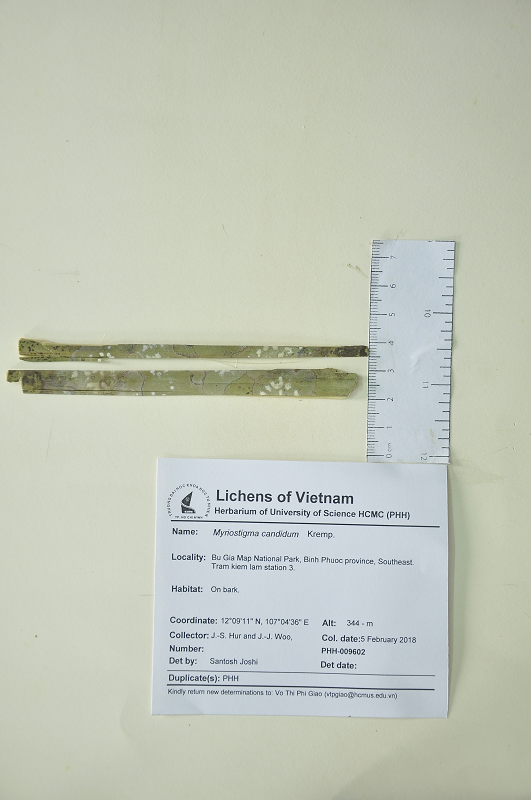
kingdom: Fungi
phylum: Ascomycota
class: Arthoniomycetes
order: Arthoniales
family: Arthoniaceae
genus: Myriostigma
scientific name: Myriostigma candidum
